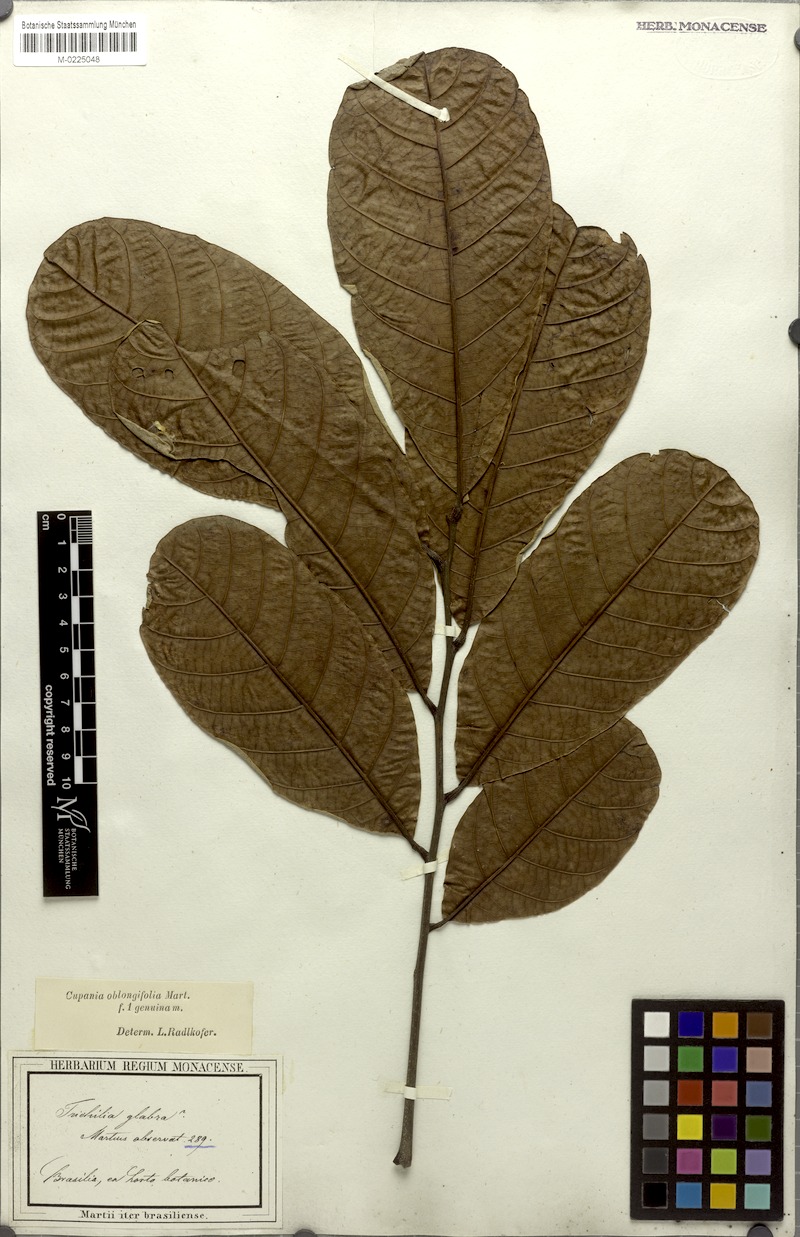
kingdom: Plantae
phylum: Tracheophyta
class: Magnoliopsida
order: Sapindales
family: Sapindaceae
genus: Cupania
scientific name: Cupania oblongifolia
